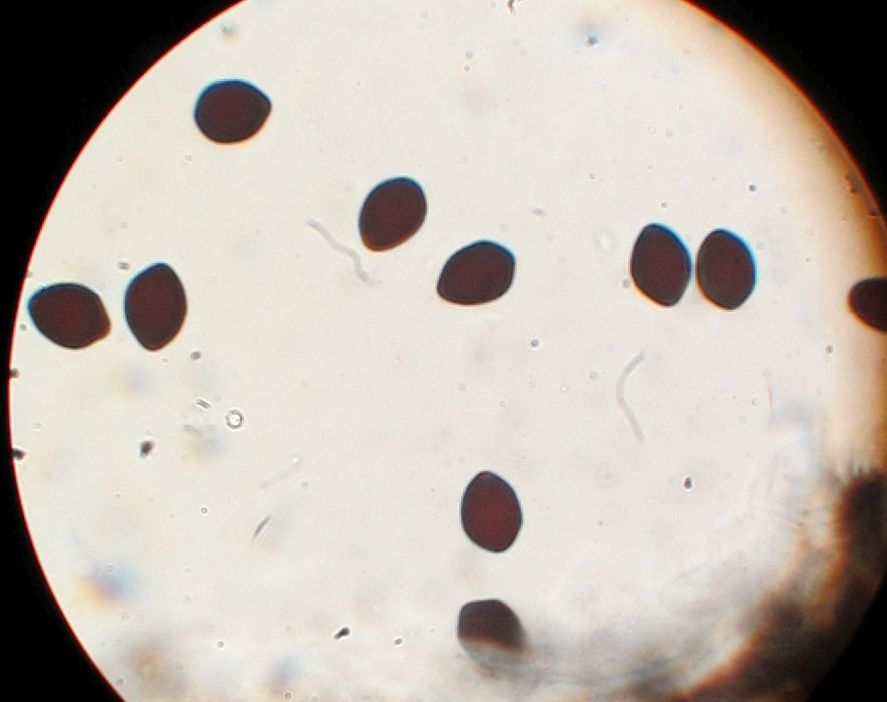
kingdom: Fungi
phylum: Basidiomycota
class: Agaricomycetes
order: Agaricales
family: Psathyrellaceae
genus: Parasola
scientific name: Parasola schroeteri
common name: bredsporet hjulhat
